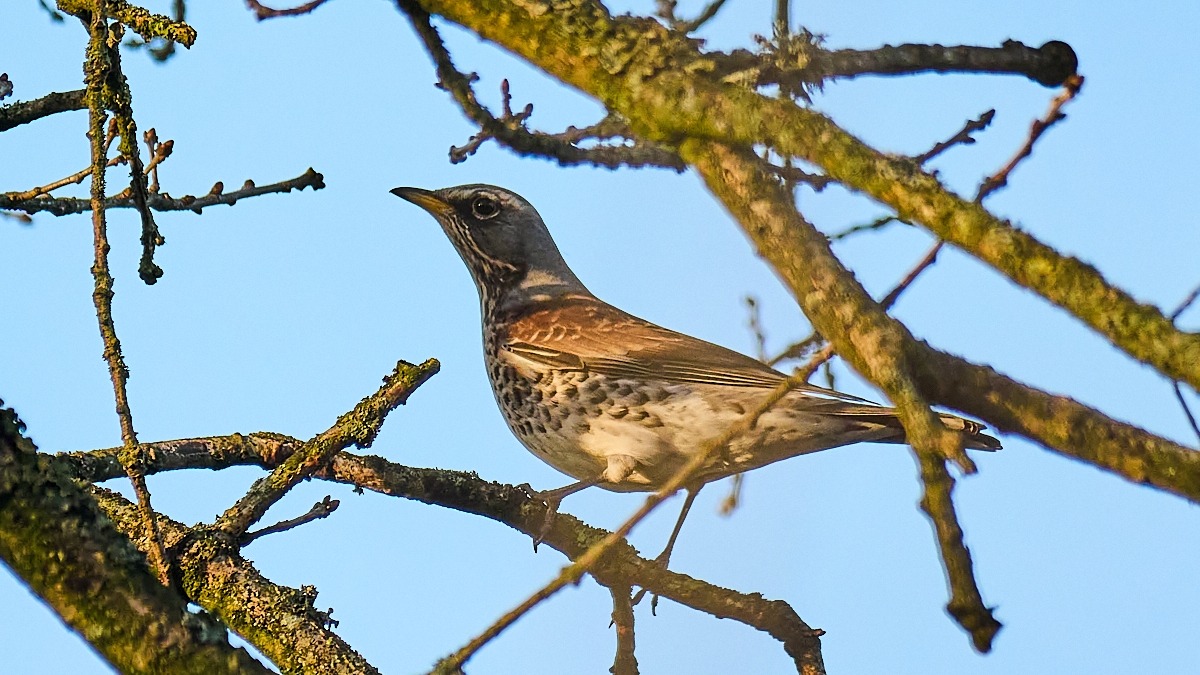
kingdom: Animalia
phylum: Chordata
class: Aves
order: Passeriformes
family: Turdidae
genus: Turdus
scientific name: Turdus pilaris
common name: Sjagger
